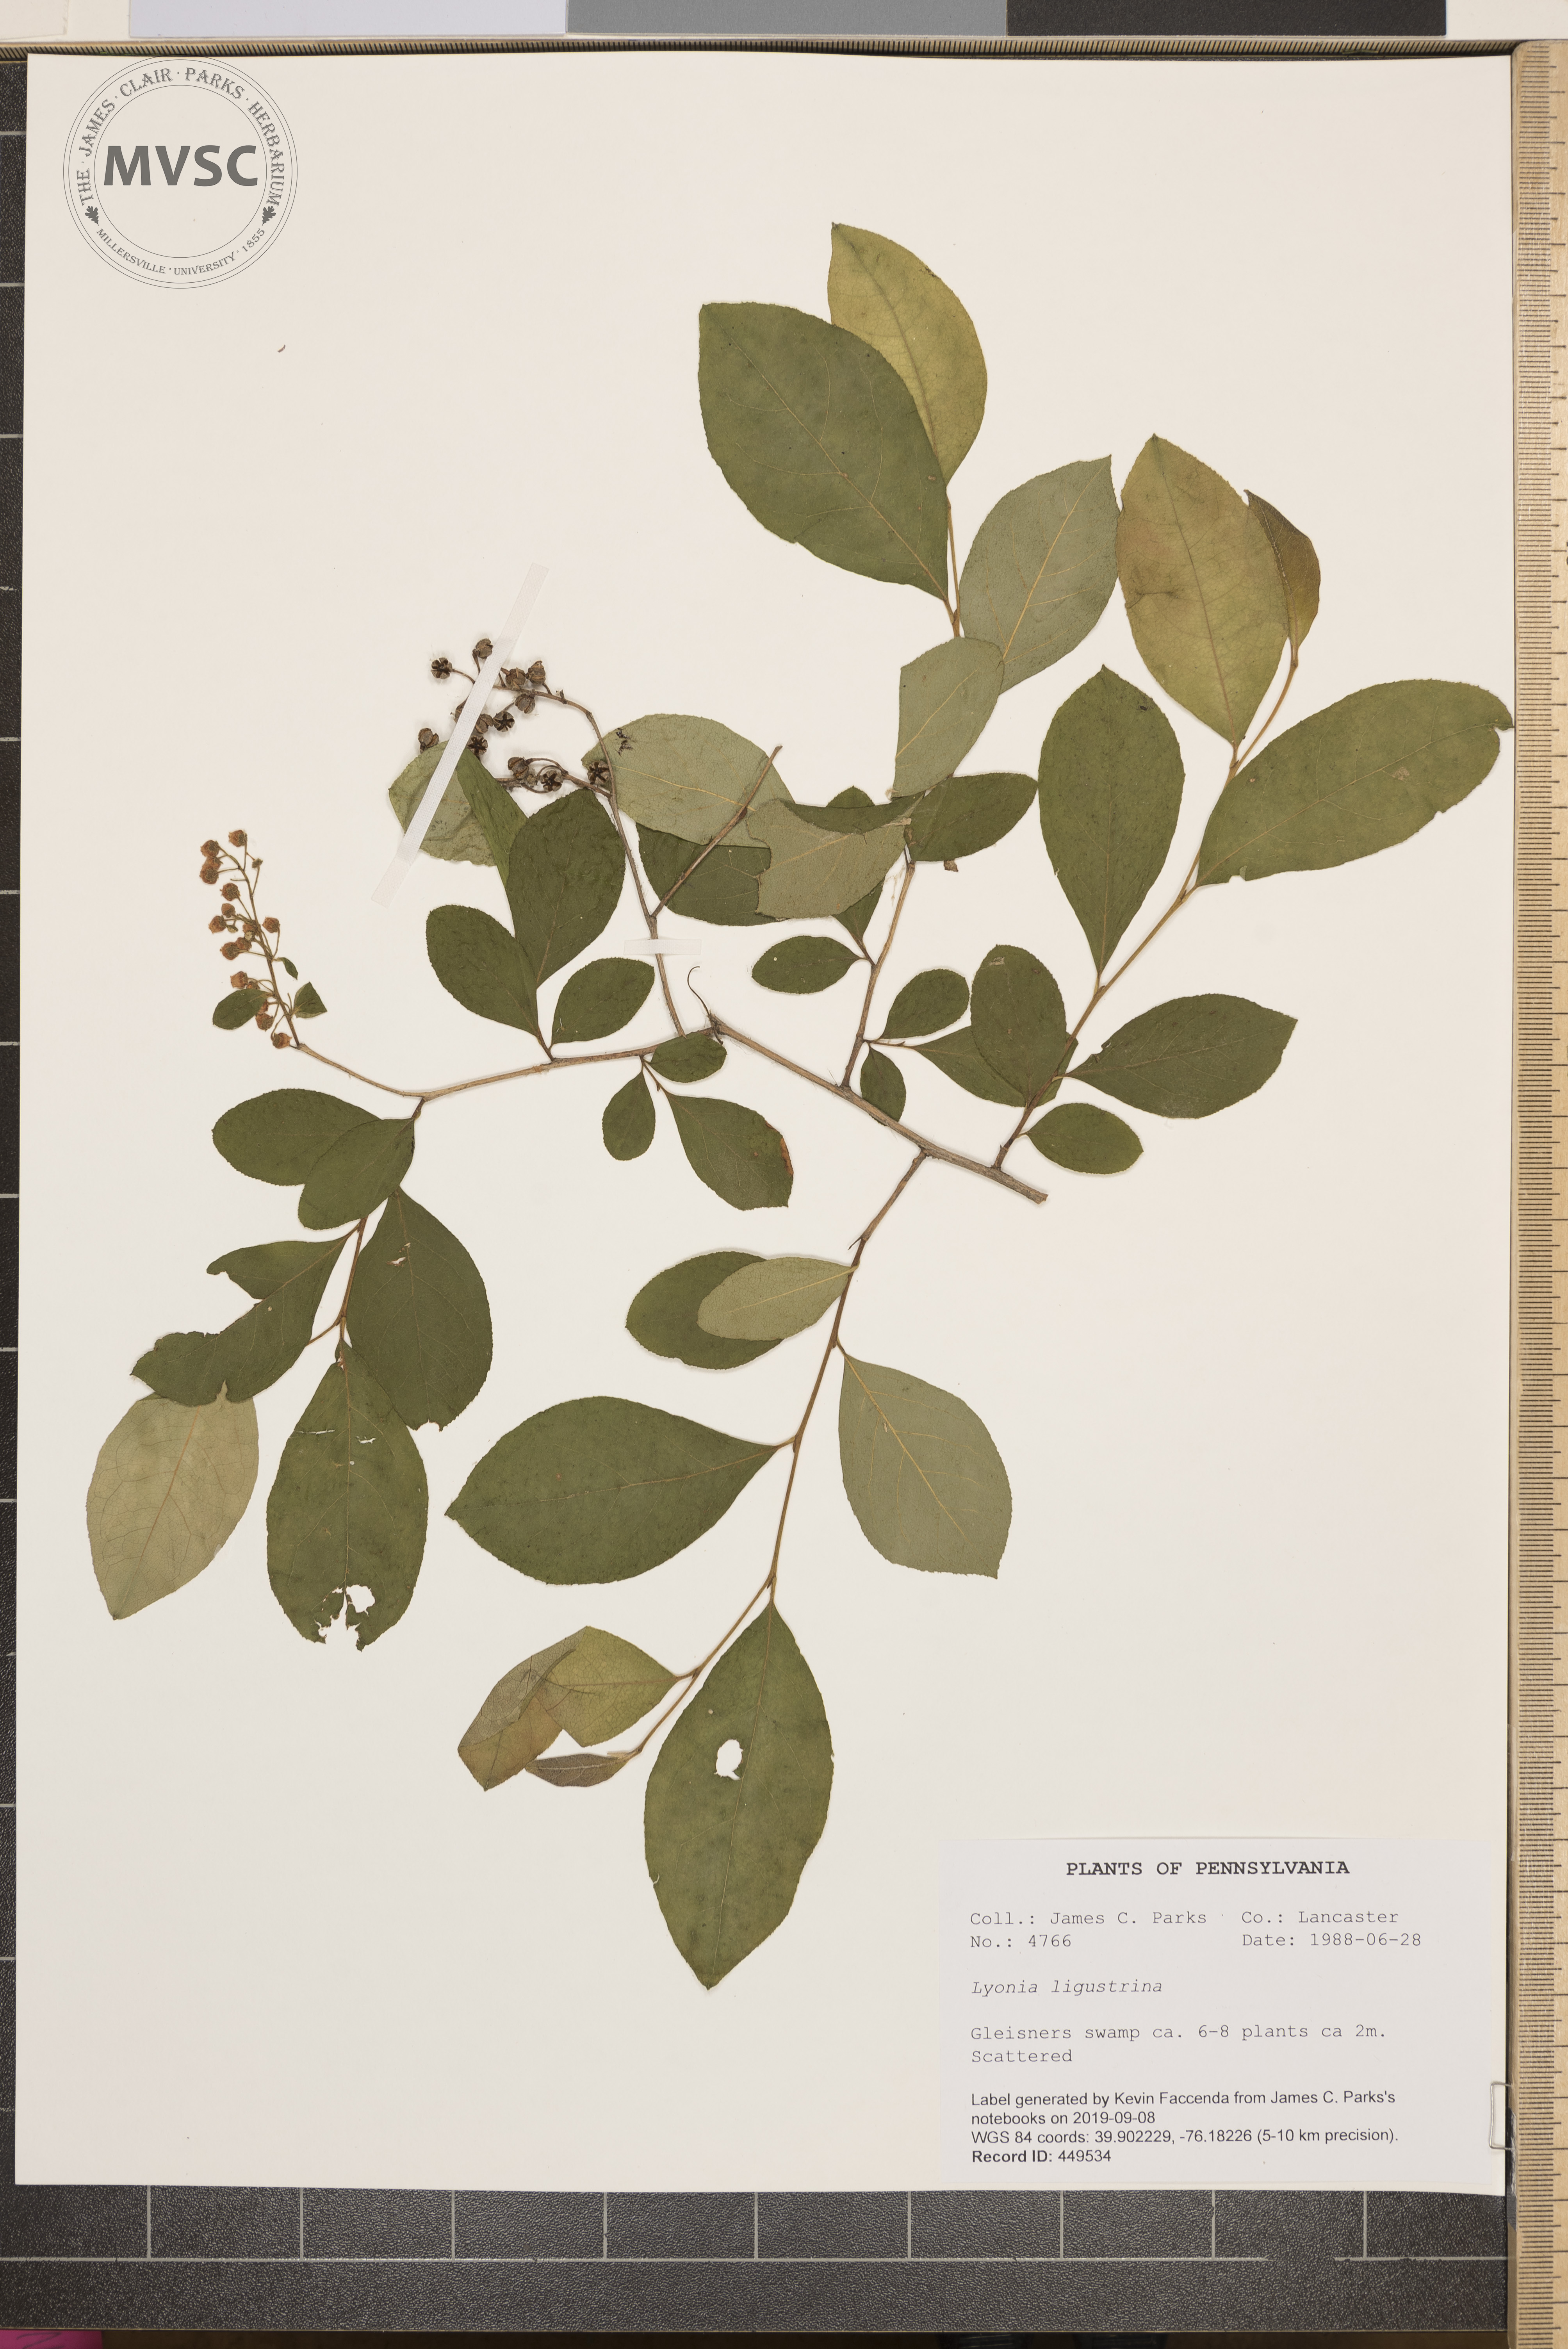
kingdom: Plantae
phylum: Tracheophyta
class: Magnoliopsida
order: Ericales
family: Ericaceae
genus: Lyonia
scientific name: Lyonia ligustrina
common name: Maleberry
